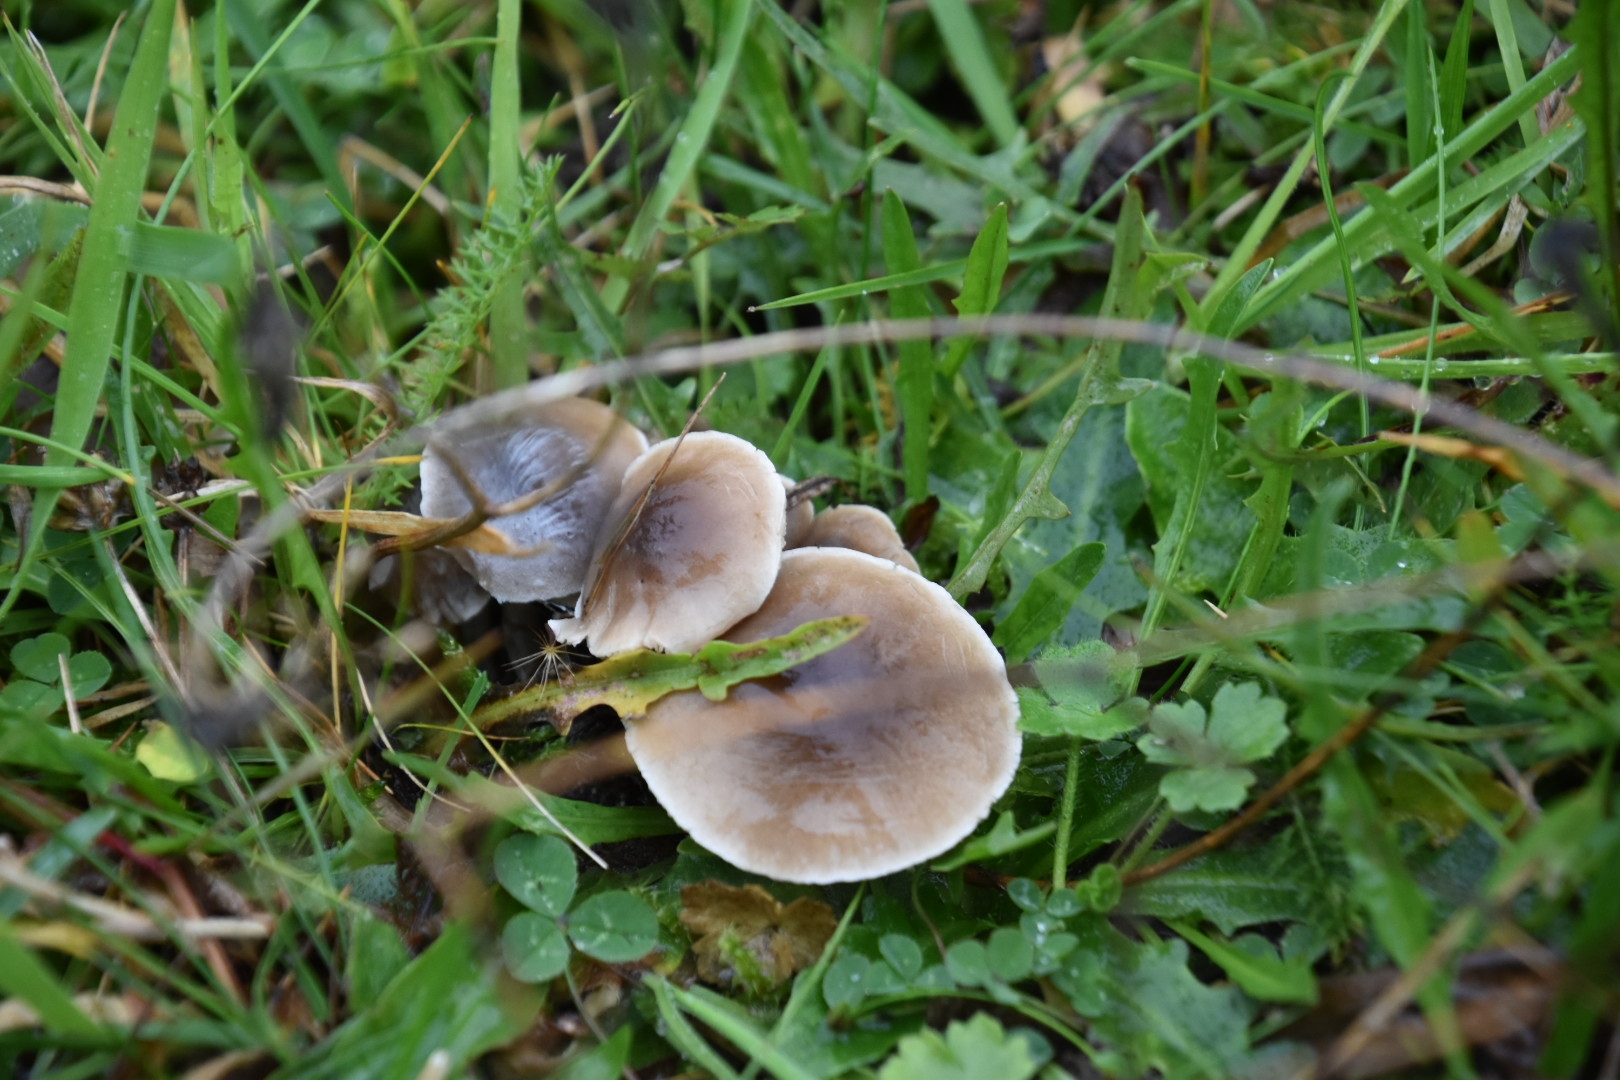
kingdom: Fungi
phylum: Basidiomycota
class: Agaricomycetes
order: Agaricales
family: Tricholomataceae
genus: Dermoloma
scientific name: Dermoloma
